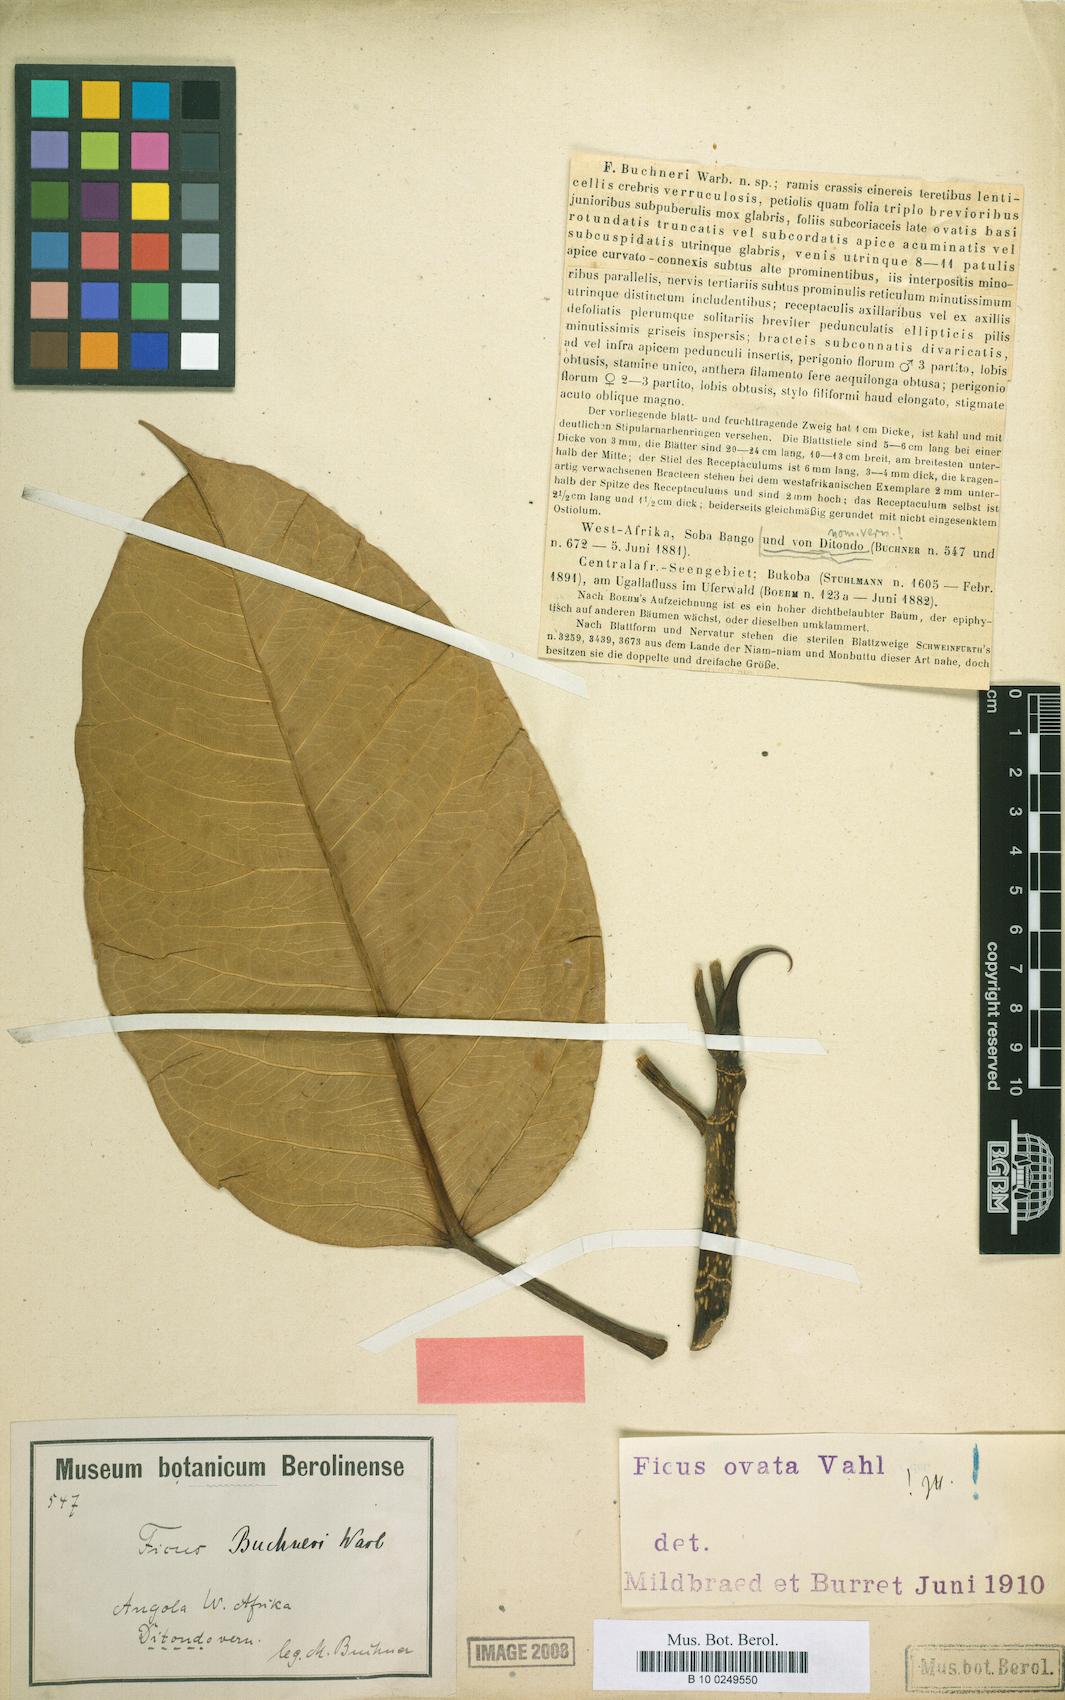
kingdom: Plantae
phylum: Tracheophyta
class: Magnoliopsida
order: Rosales
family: Moraceae
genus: Ficus
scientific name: Ficus laurifolia
